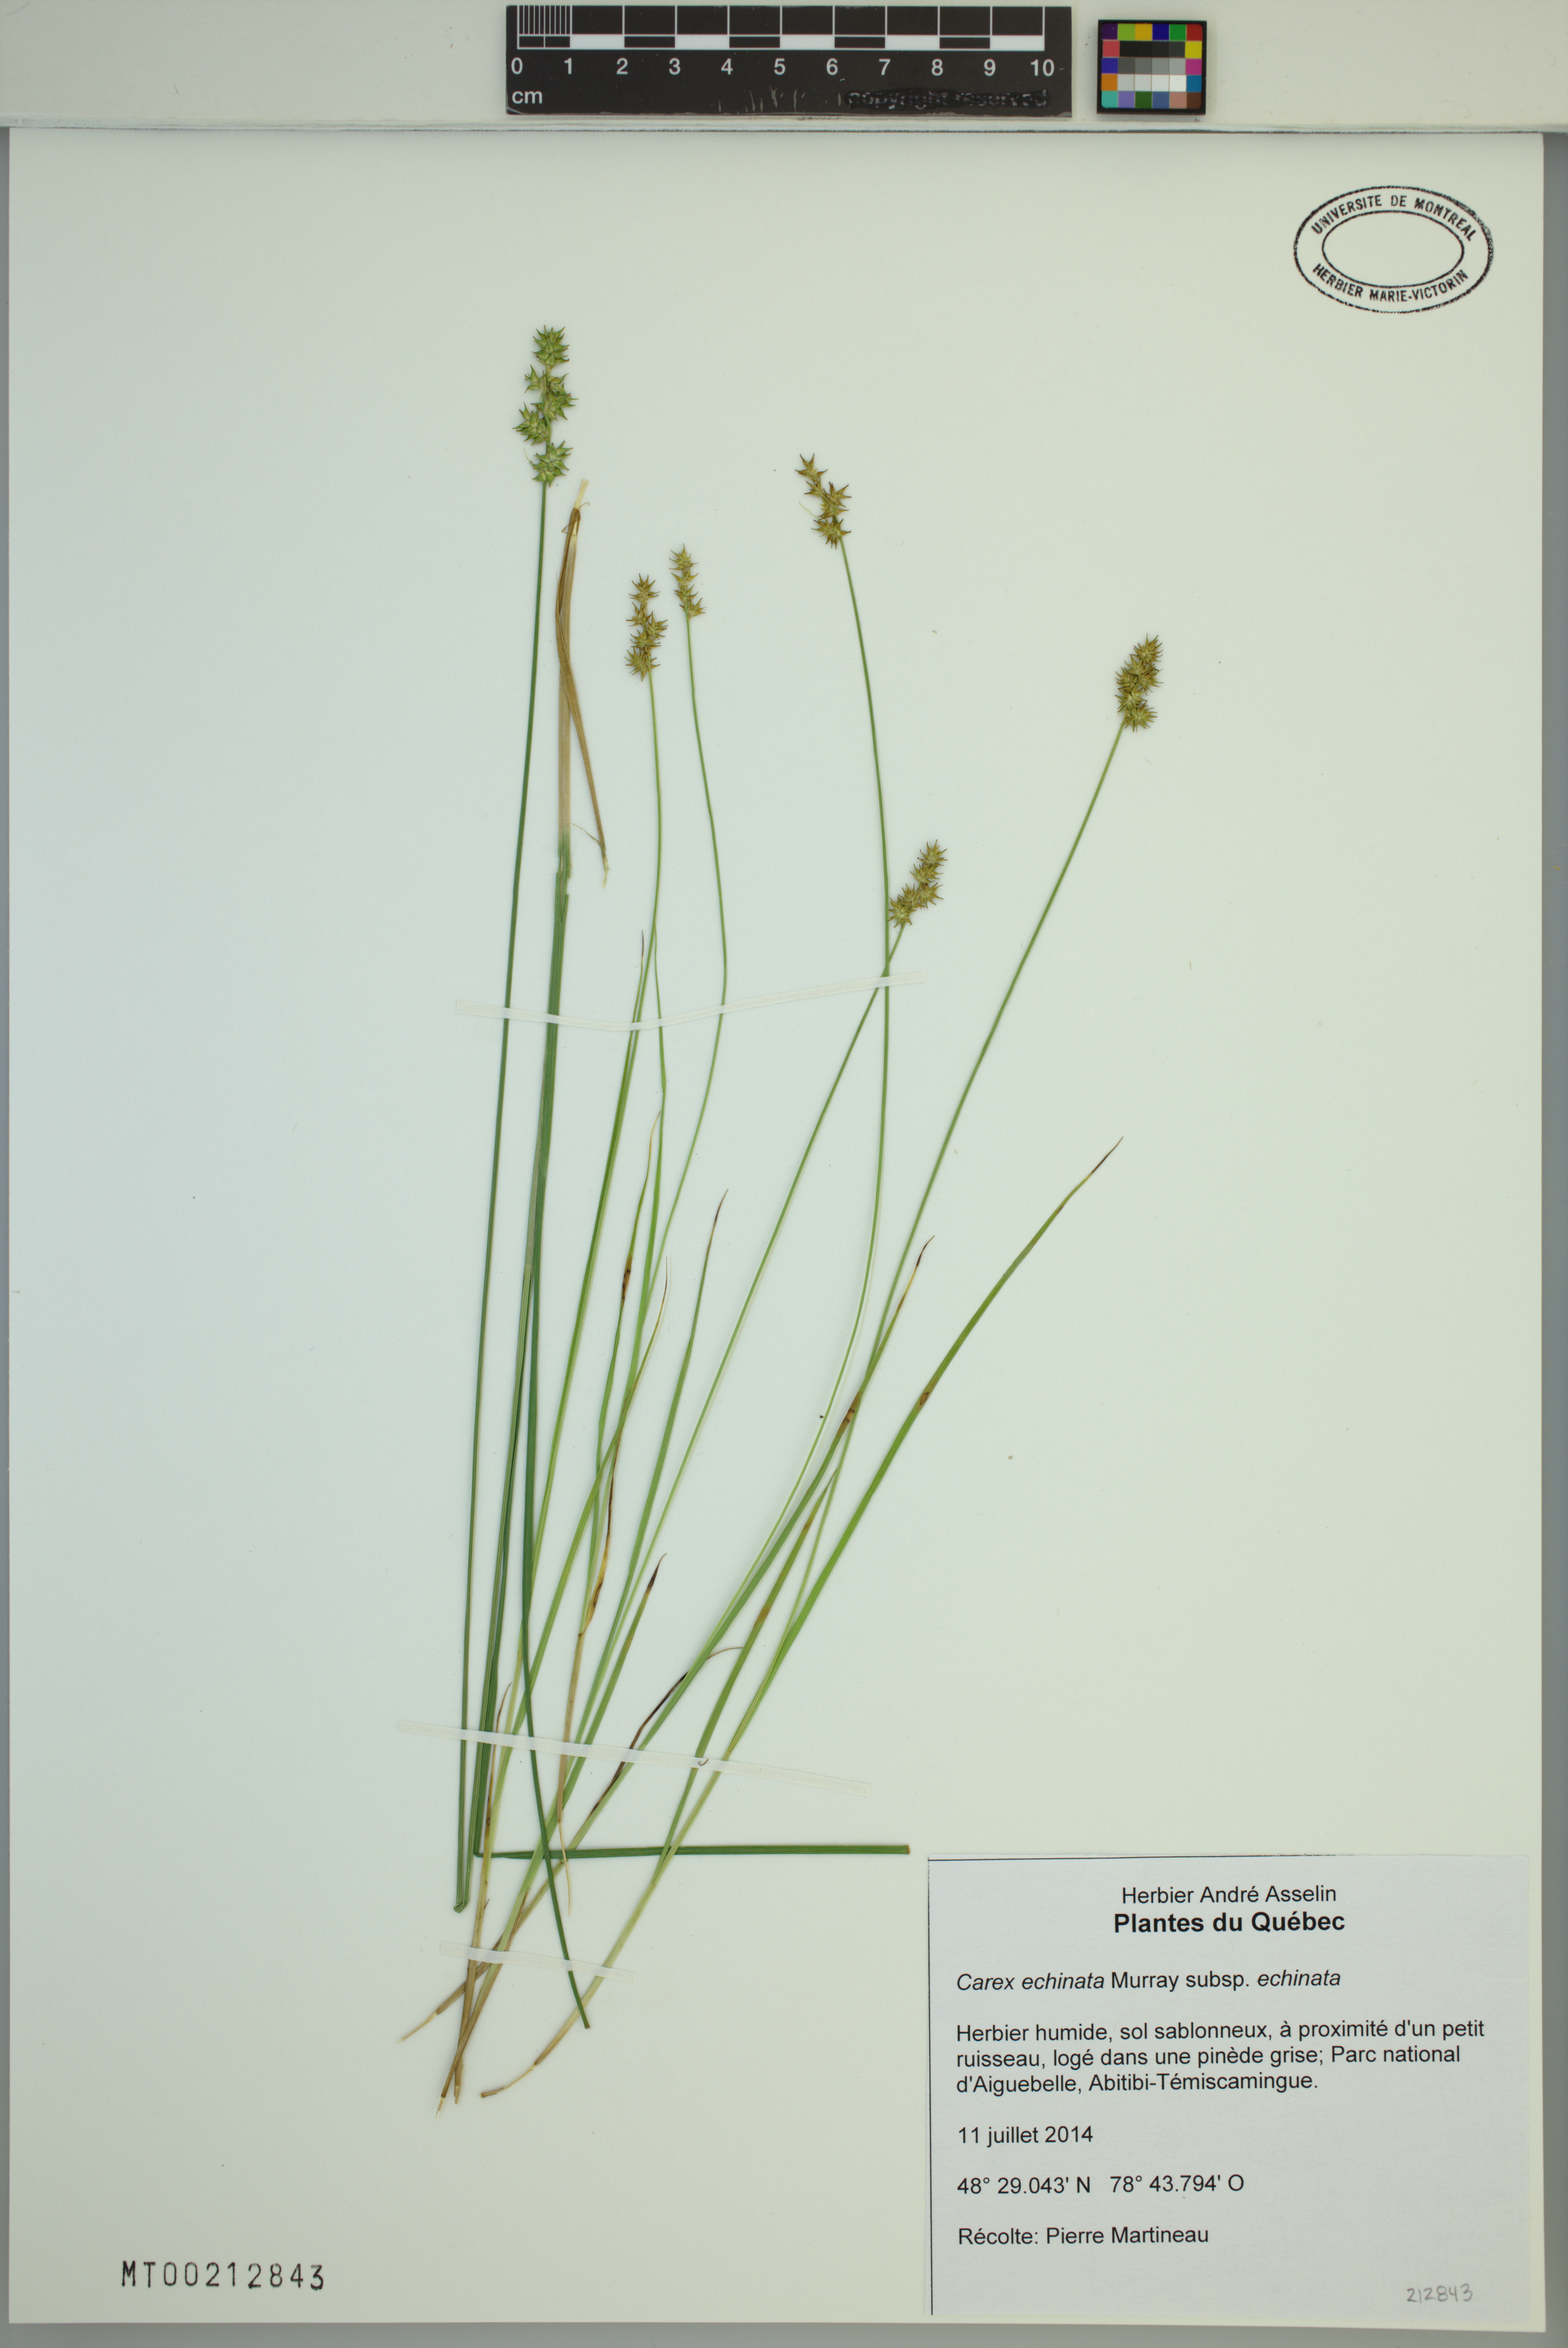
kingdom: Plantae
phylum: Tracheophyta
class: Liliopsida
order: Poales
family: Cyperaceae
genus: Carex
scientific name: Carex echinata
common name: Star sedge
